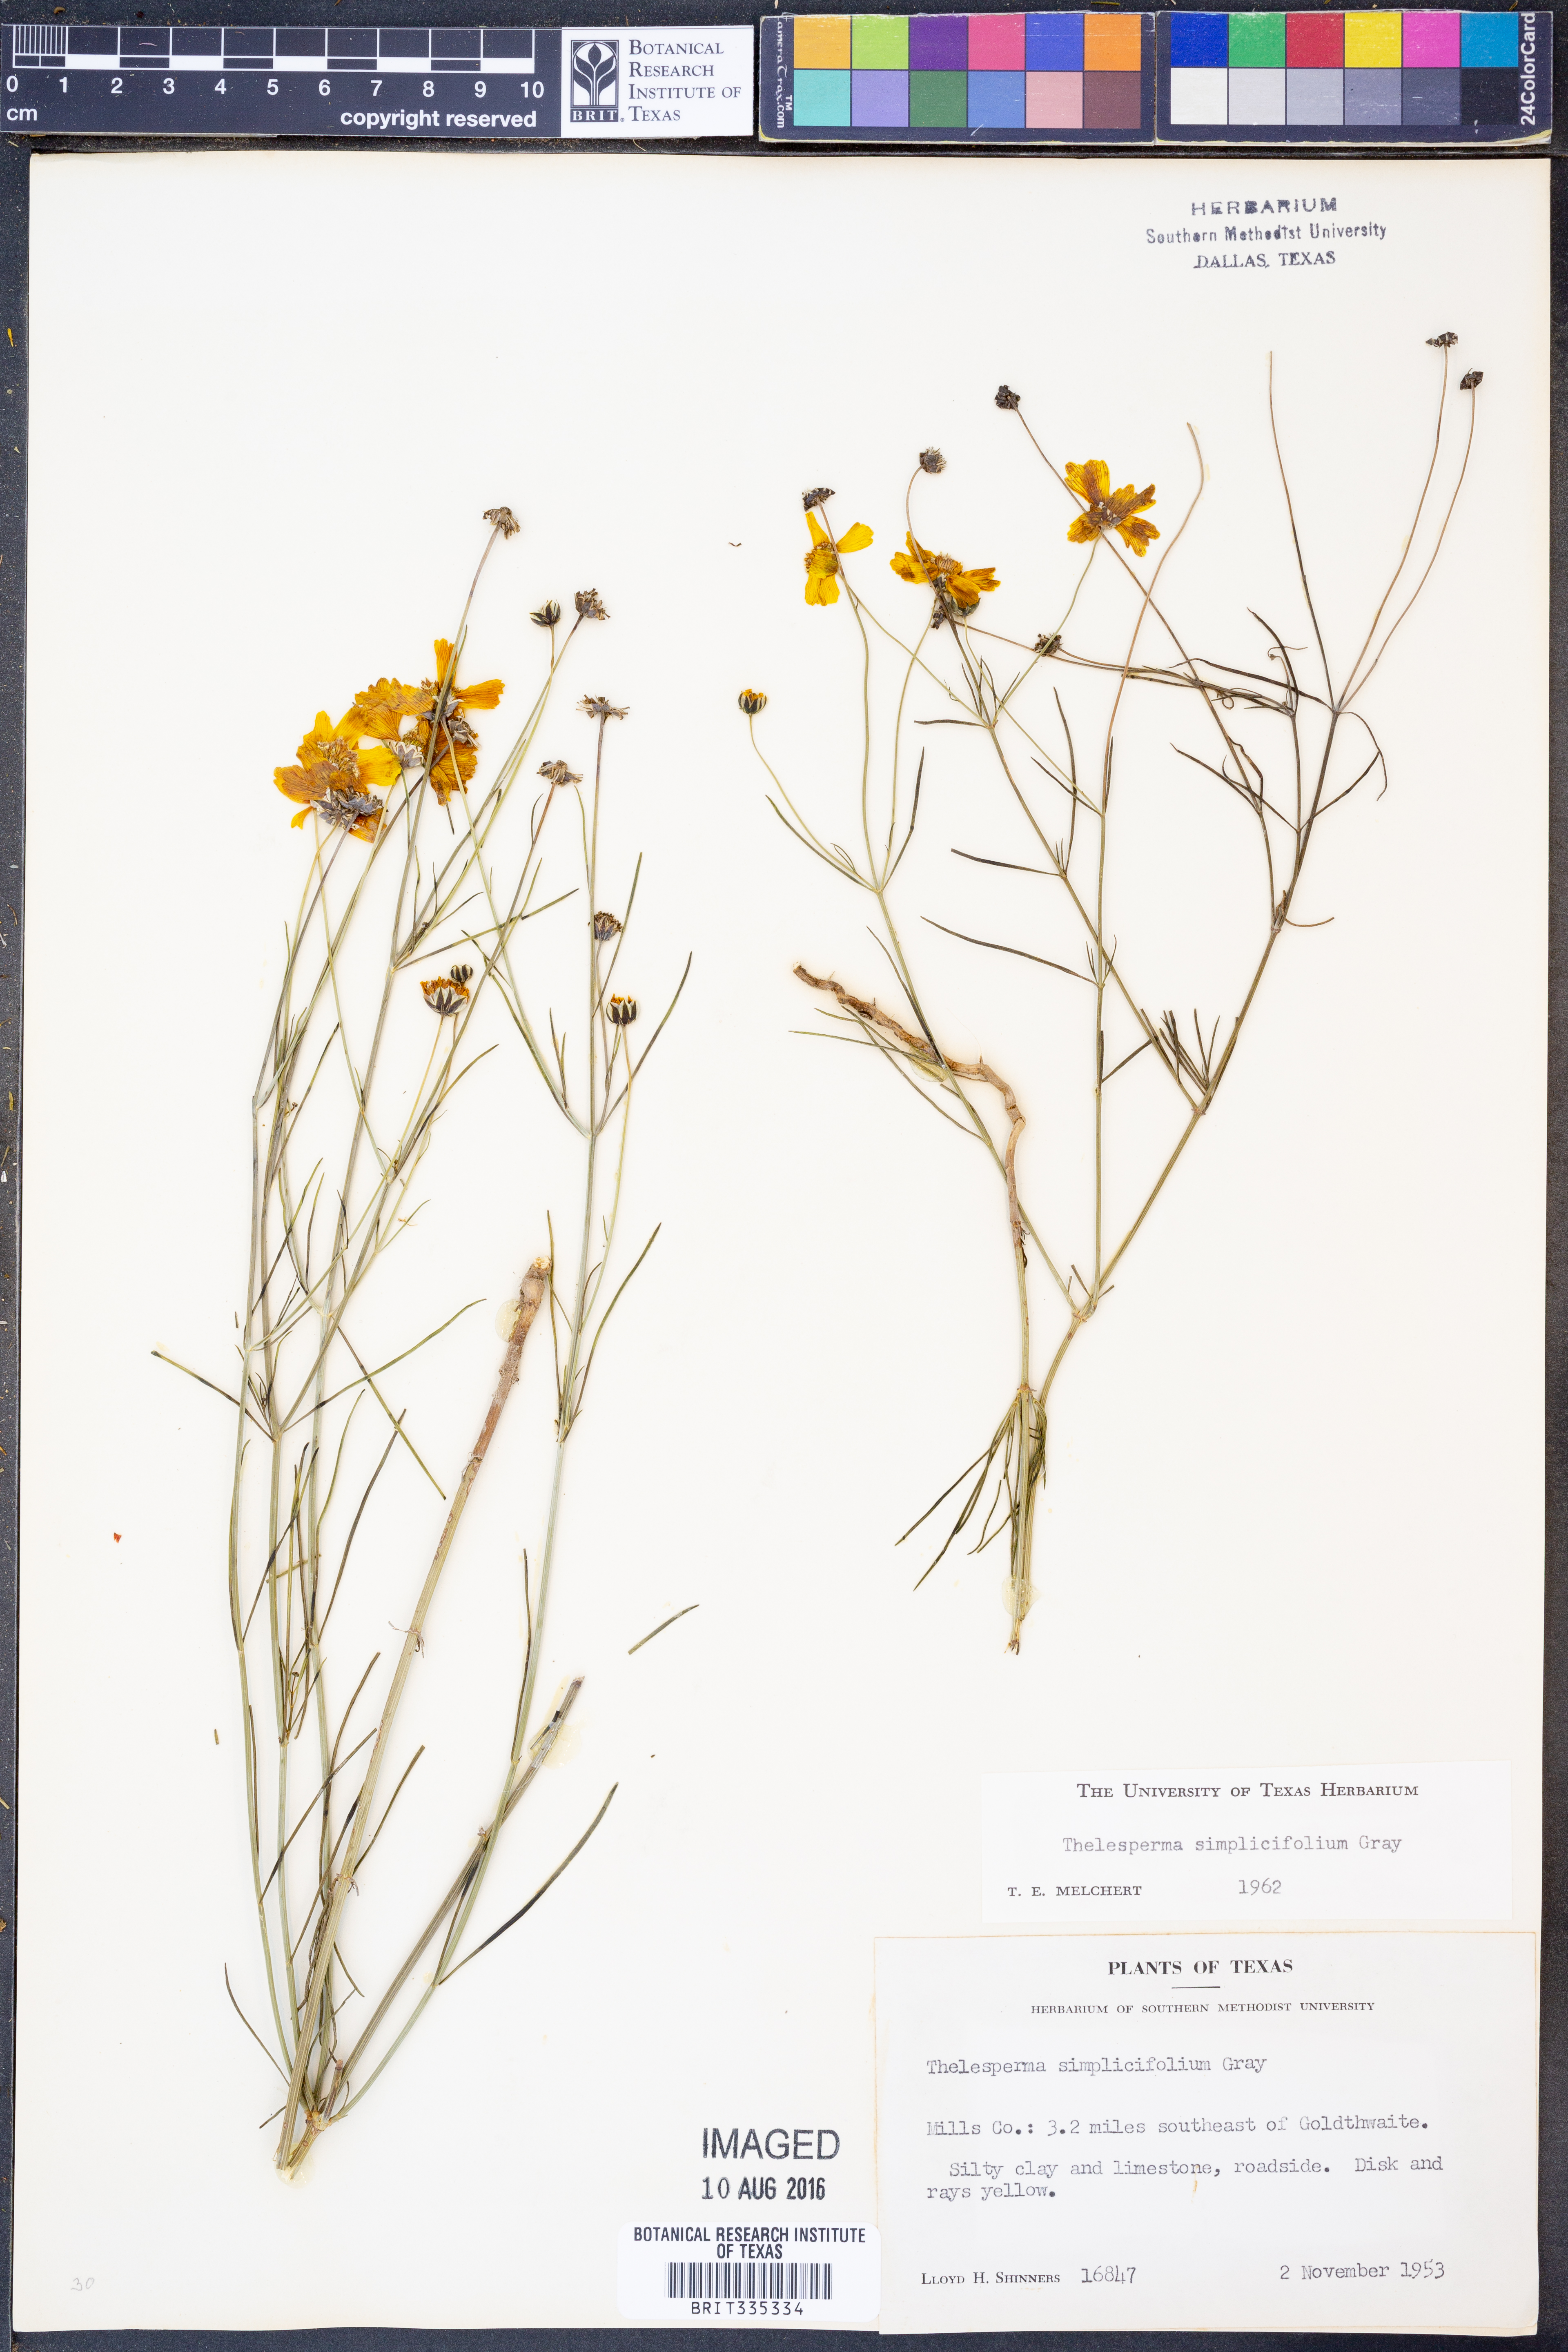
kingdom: Plantae
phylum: Tracheophyta
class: Magnoliopsida
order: Asterales
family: Asteraceae
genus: Thelesperma
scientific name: Thelesperma simplicifolium
